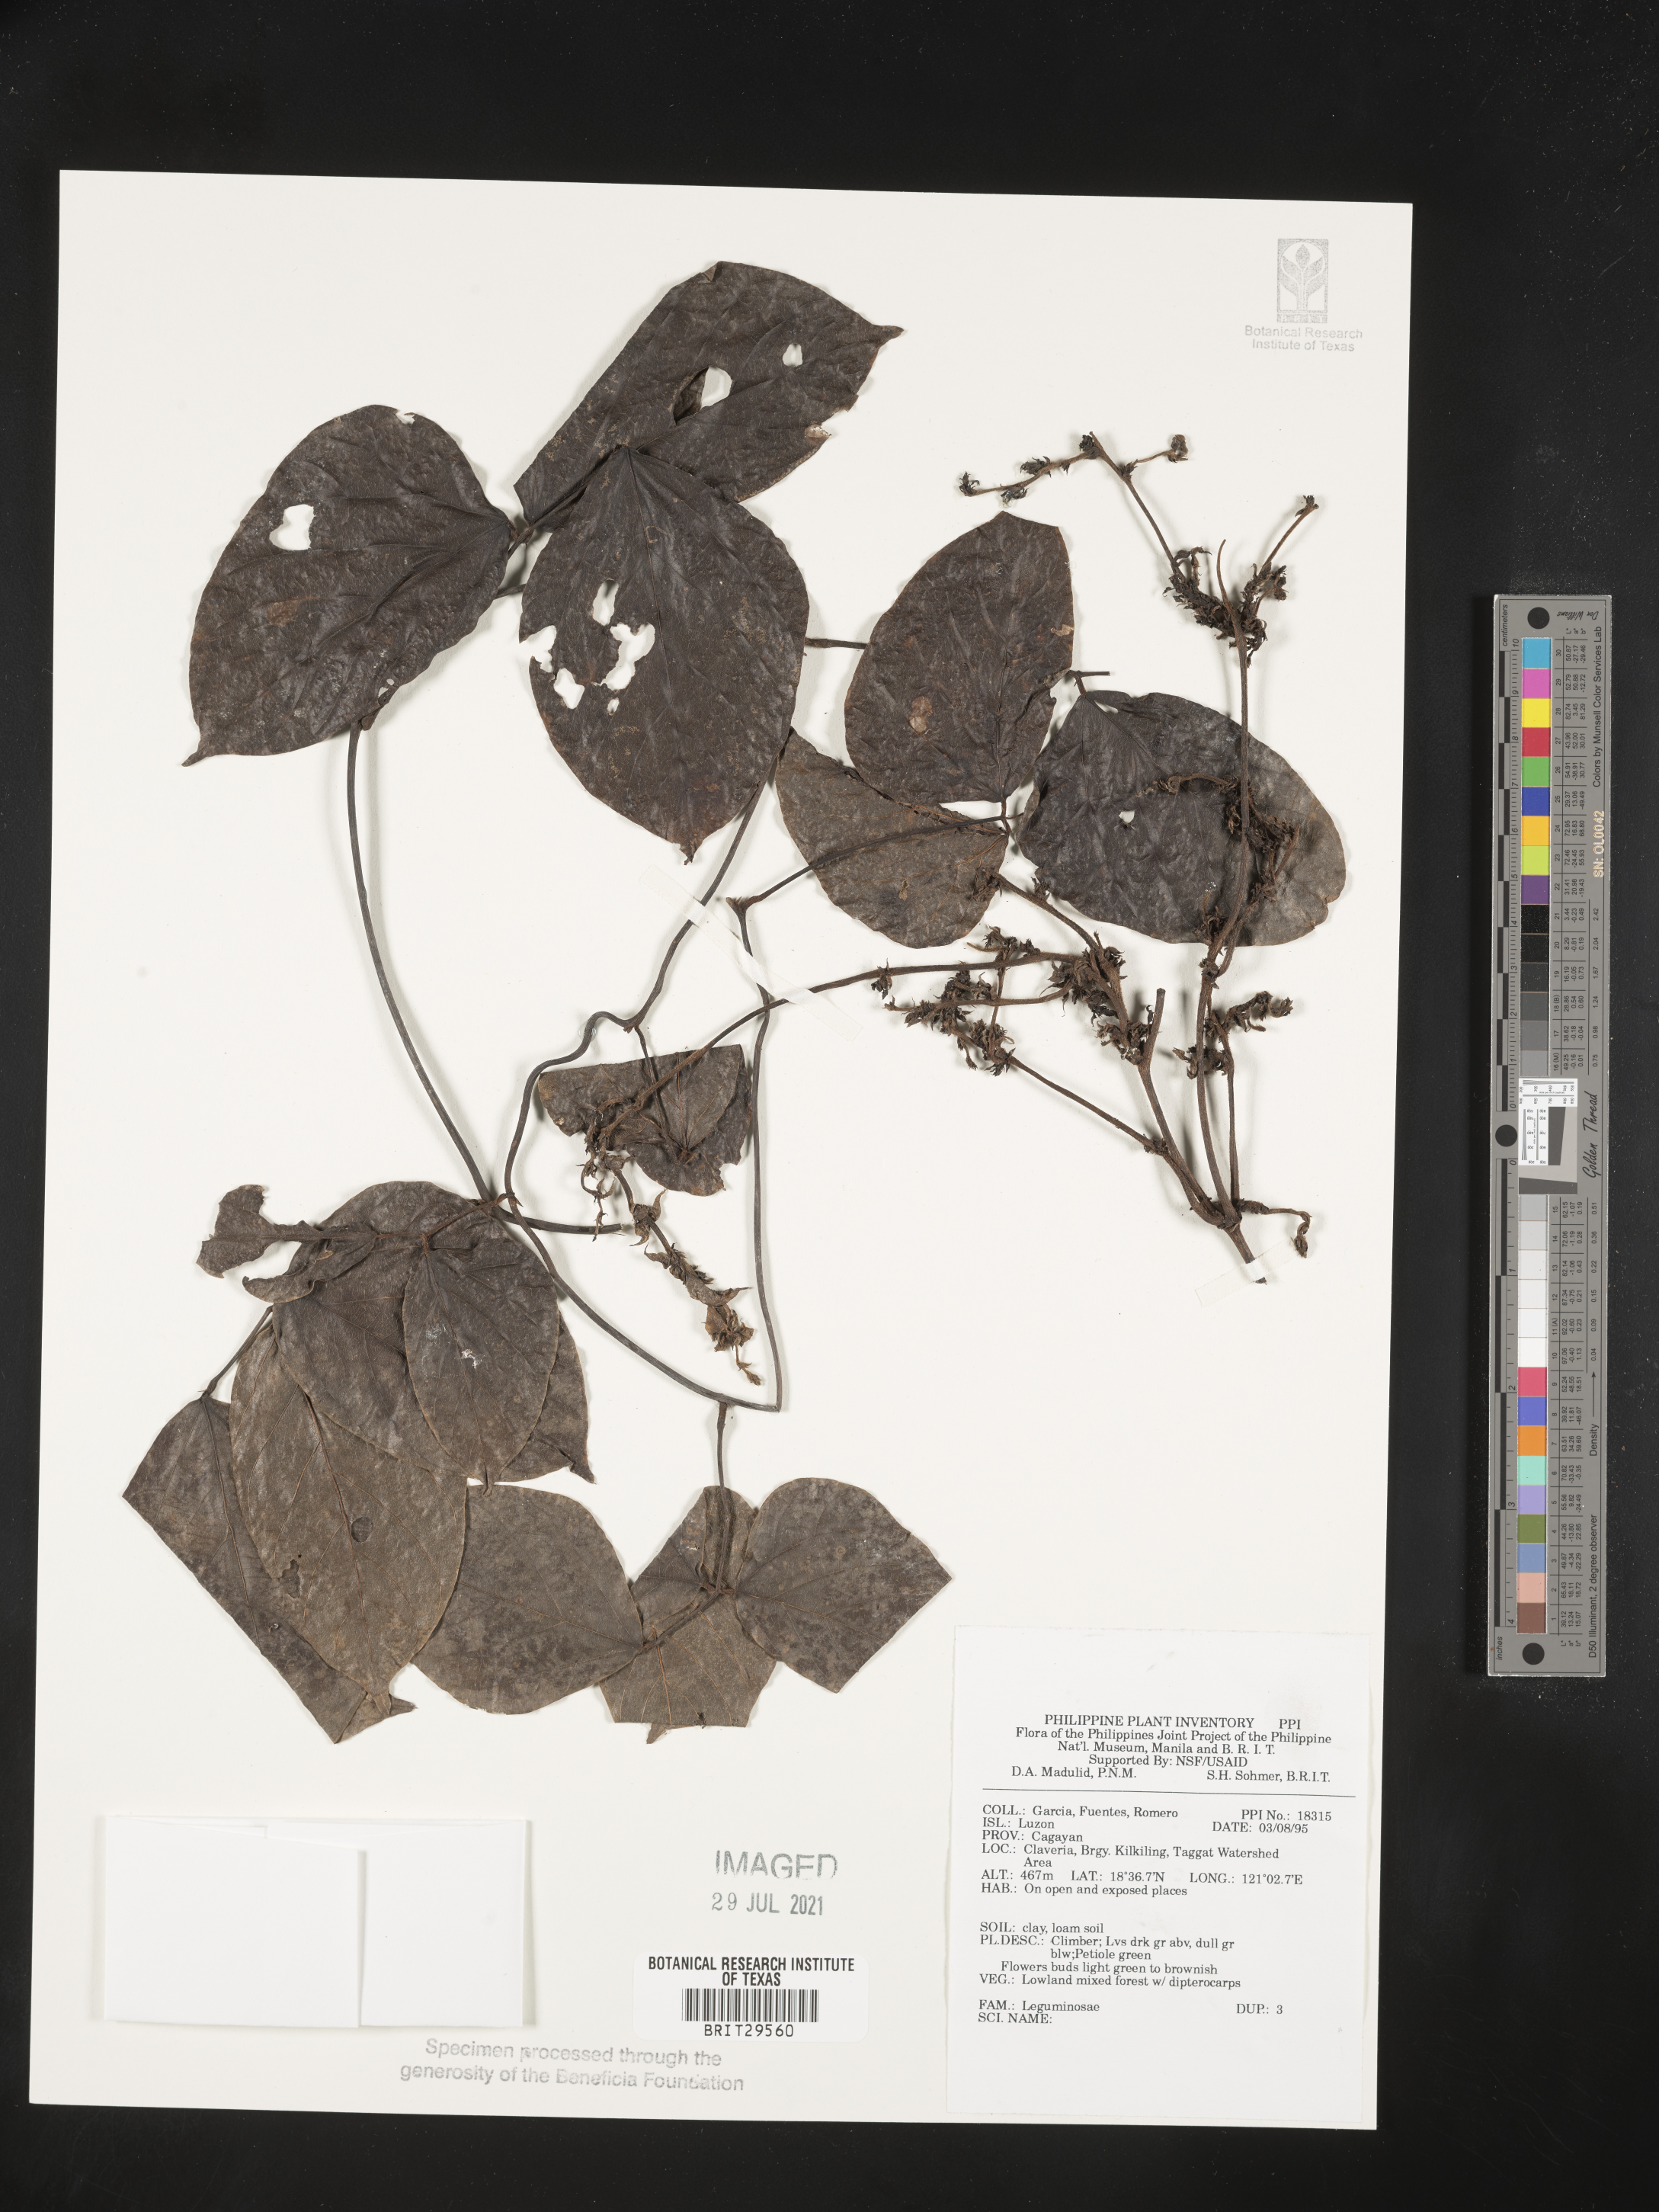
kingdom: Plantae
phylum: Tracheophyta
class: Magnoliopsida
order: Fabales
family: Fabaceae
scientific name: Fabaceae
